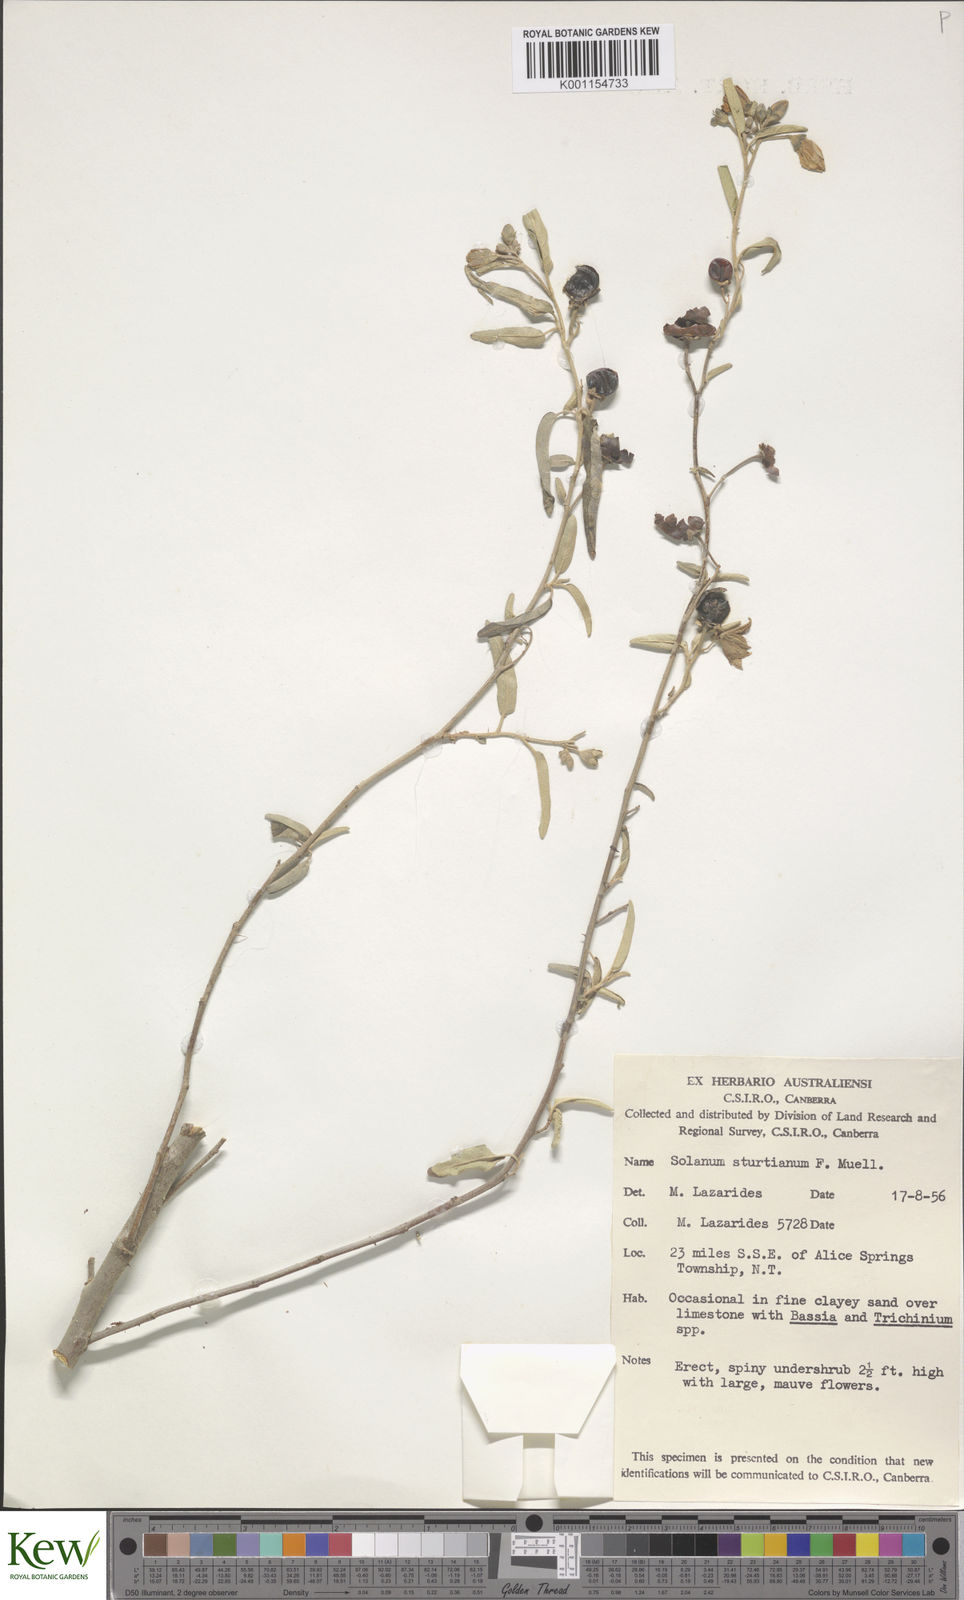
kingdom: Plantae
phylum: Tracheophyta
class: Magnoliopsida
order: Solanales
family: Solanaceae
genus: Solanum
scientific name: Solanum
